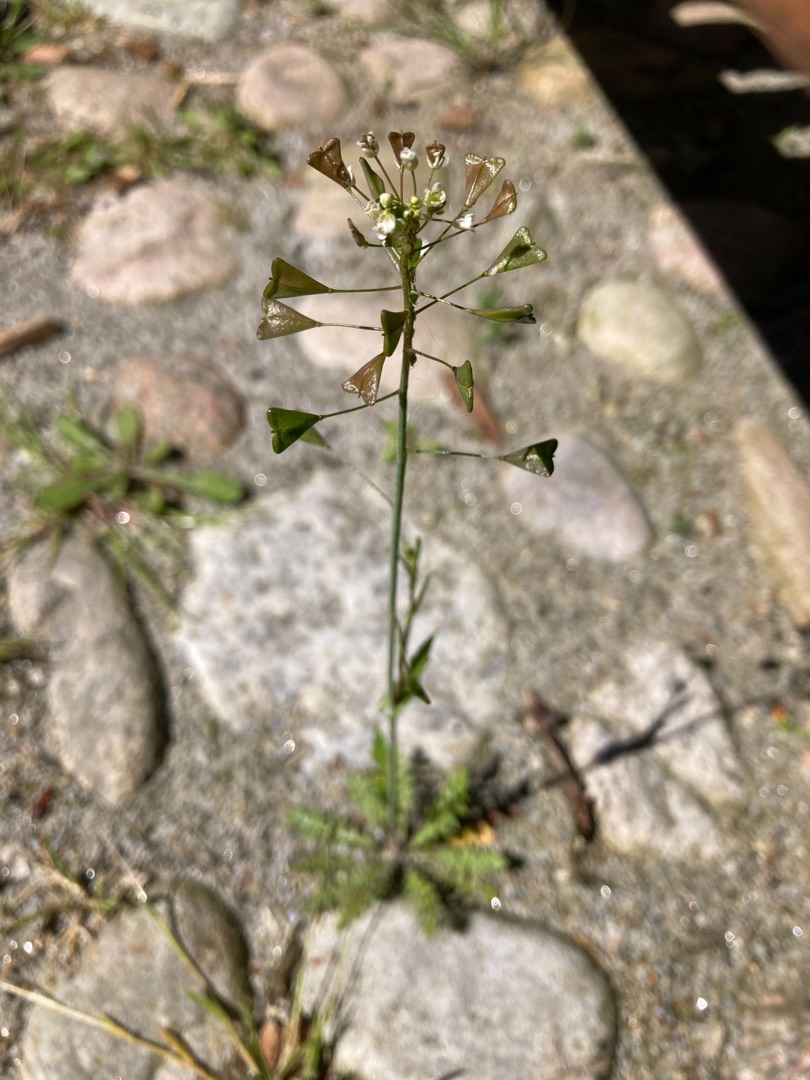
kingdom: Plantae
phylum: Tracheophyta
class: Magnoliopsida
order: Brassicales
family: Brassicaceae
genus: Capsella
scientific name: Capsella bursa-pastoris
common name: Hyrdetaske
